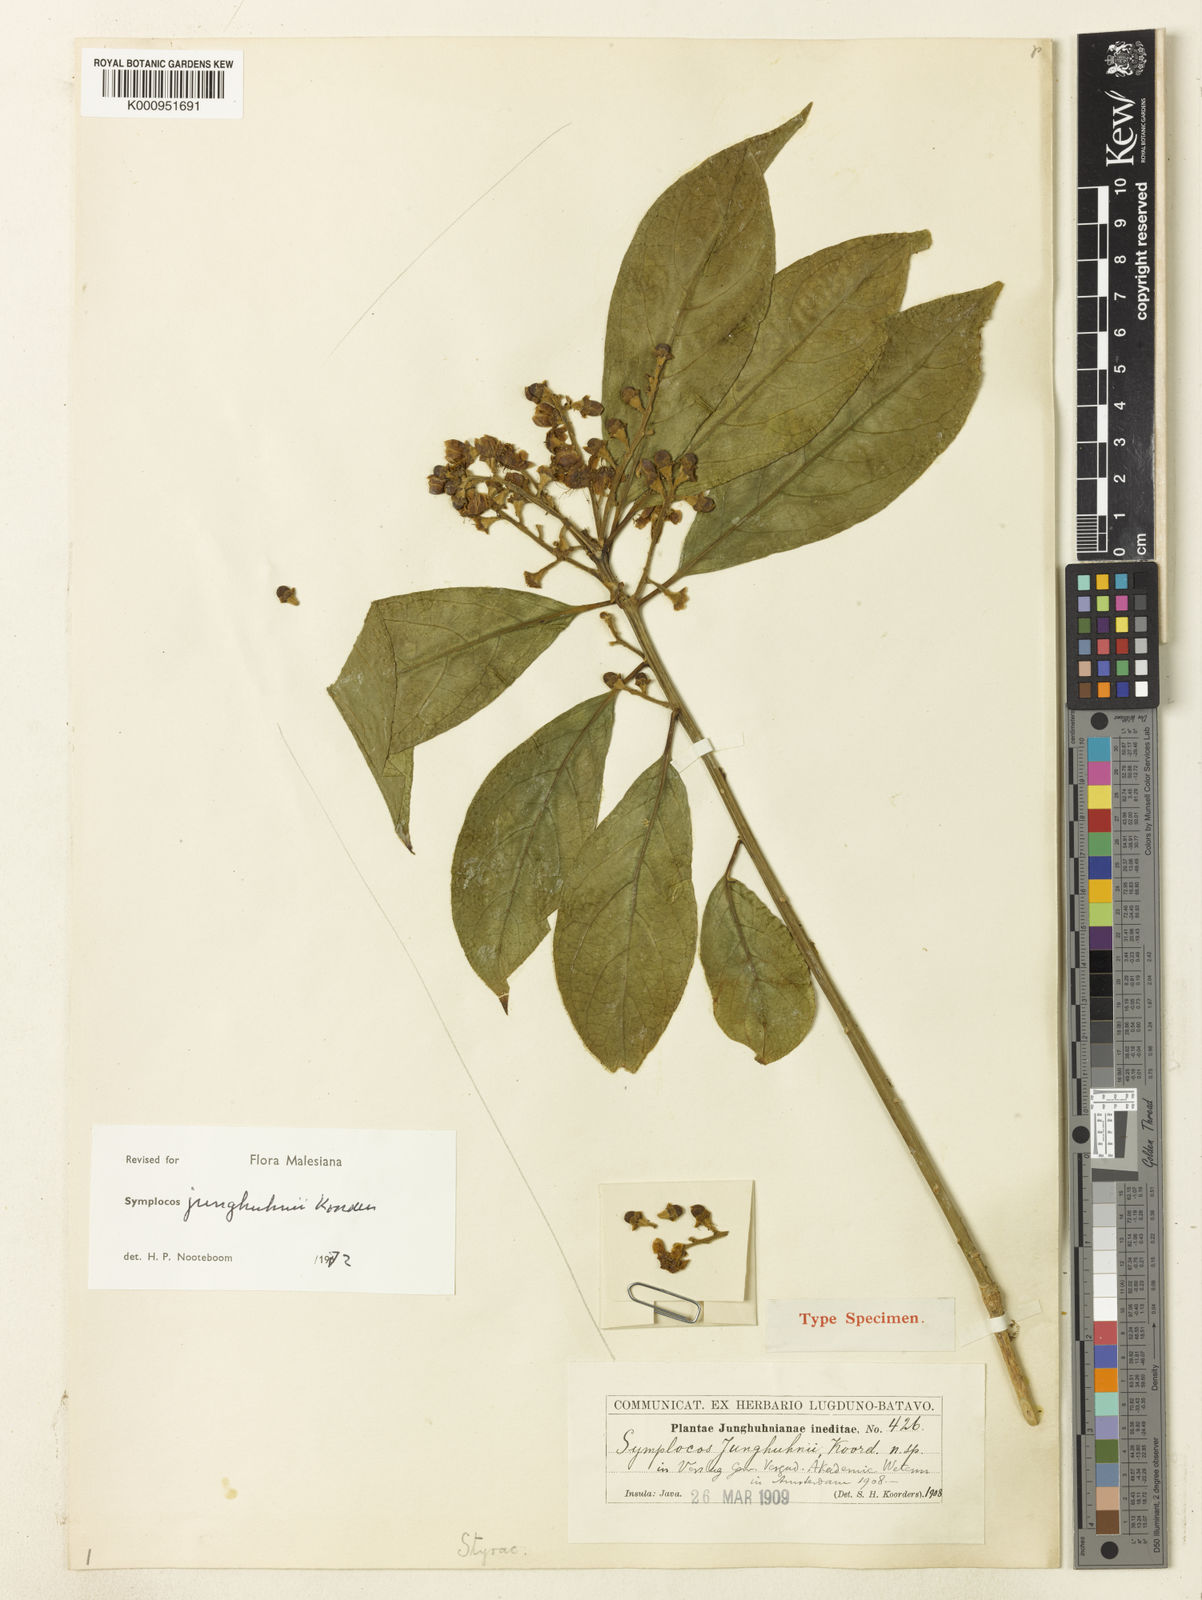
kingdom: Plantae
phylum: Tracheophyta
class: Magnoliopsida
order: Ericales
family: Symplocaceae
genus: Symplocos
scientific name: Symplocos junghuhnii
